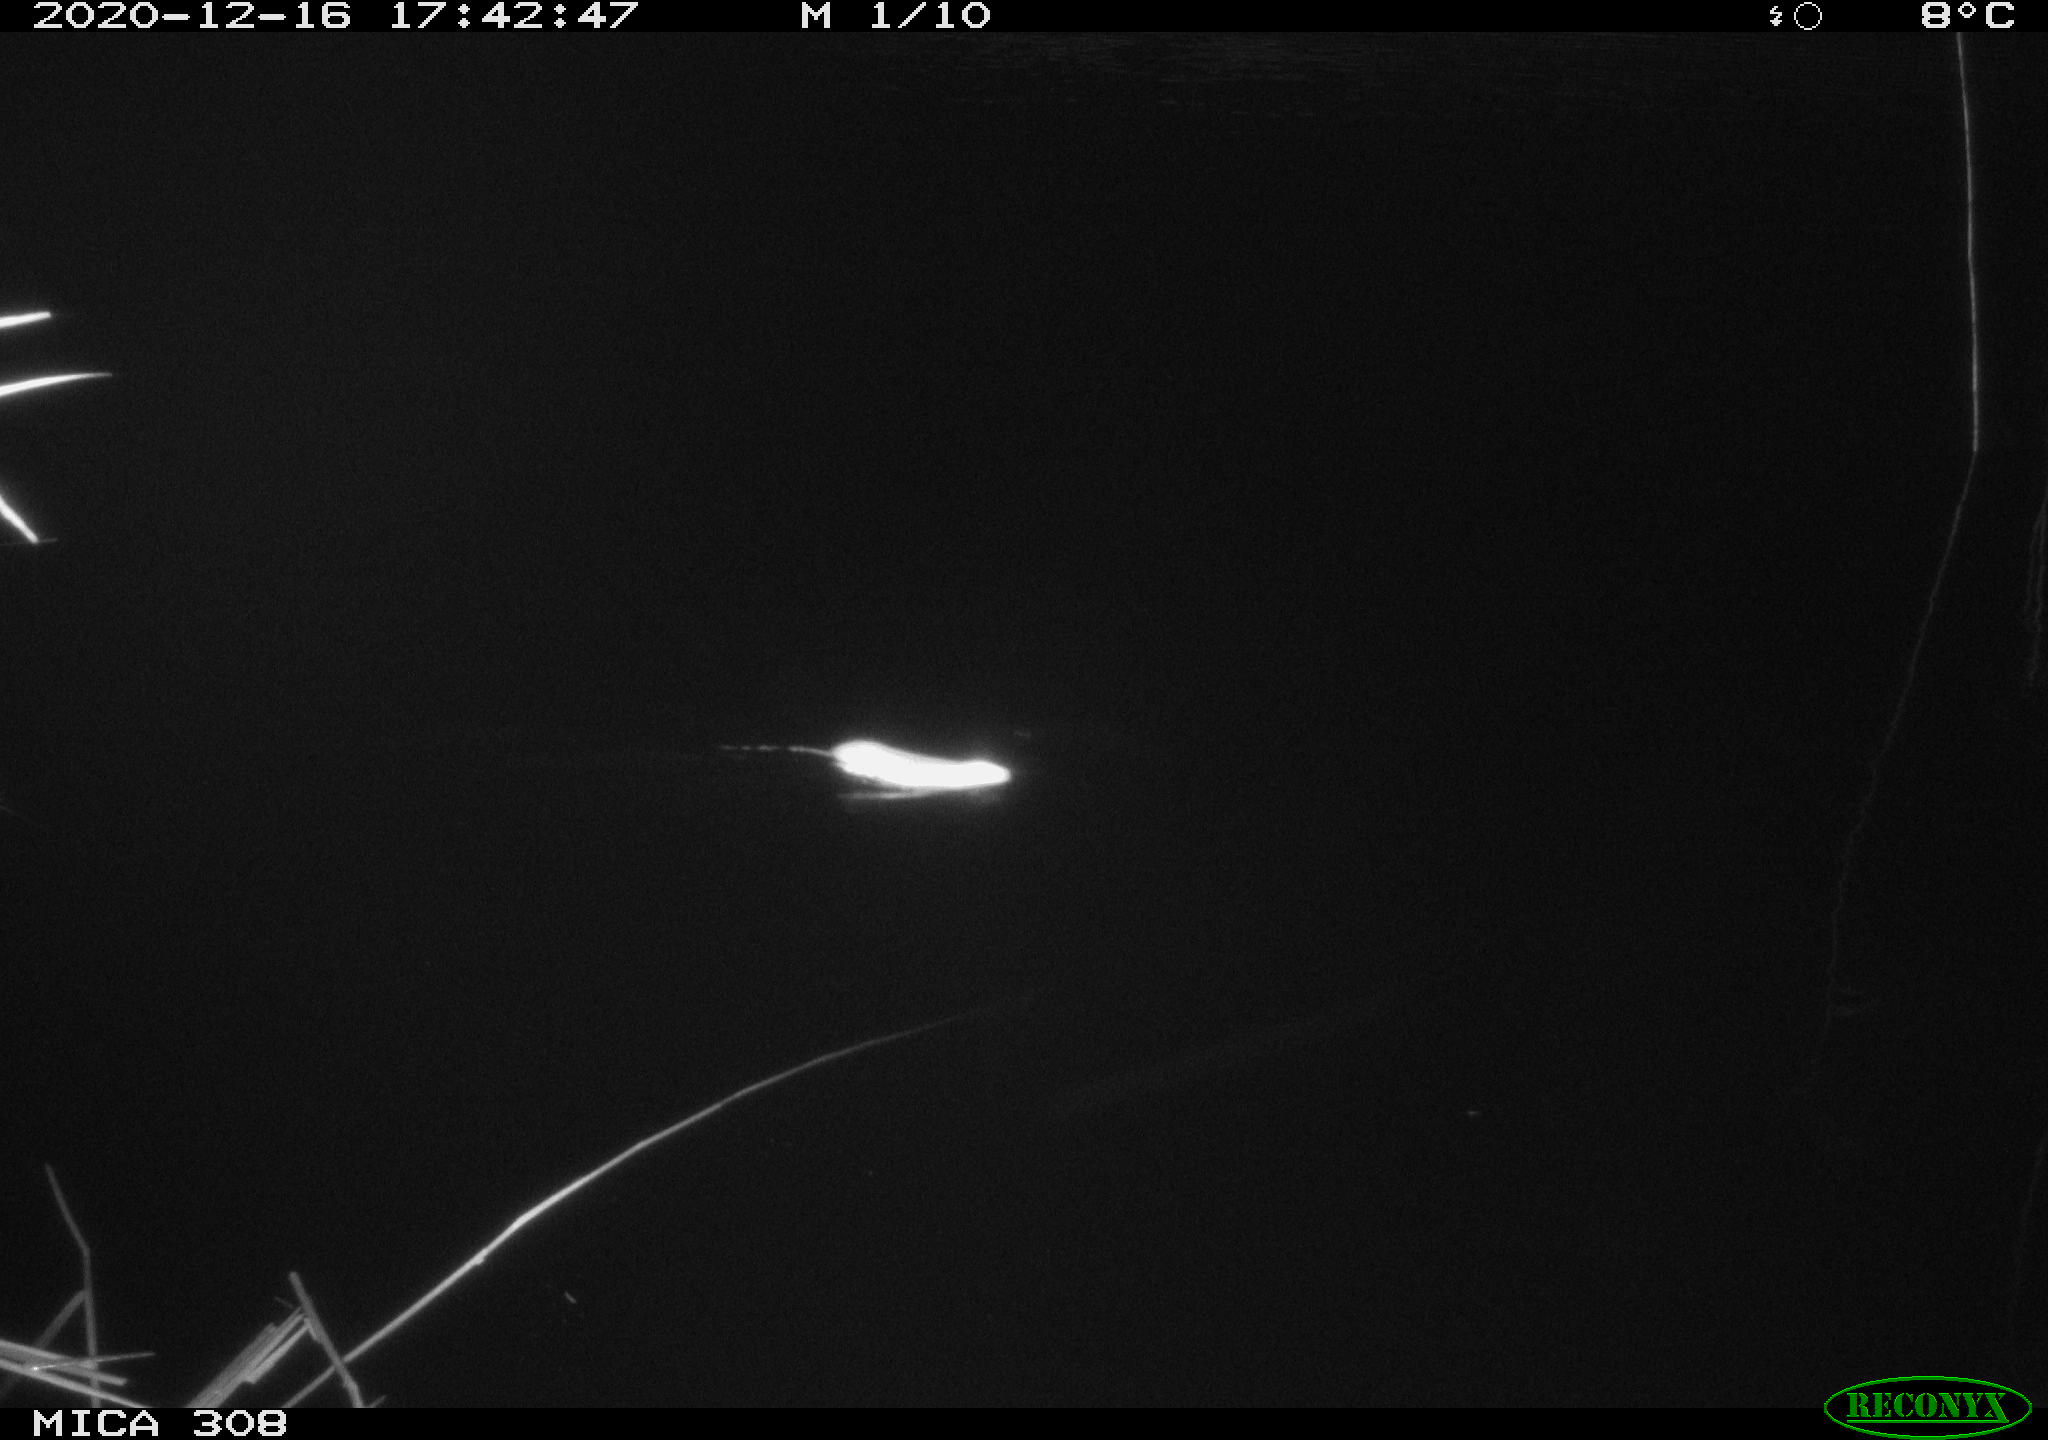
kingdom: Animalia
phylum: Chordata
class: Mammalia
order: Rodentia
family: Muridae
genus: Rattus
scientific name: Rattus norvegicus
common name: Brown rat
